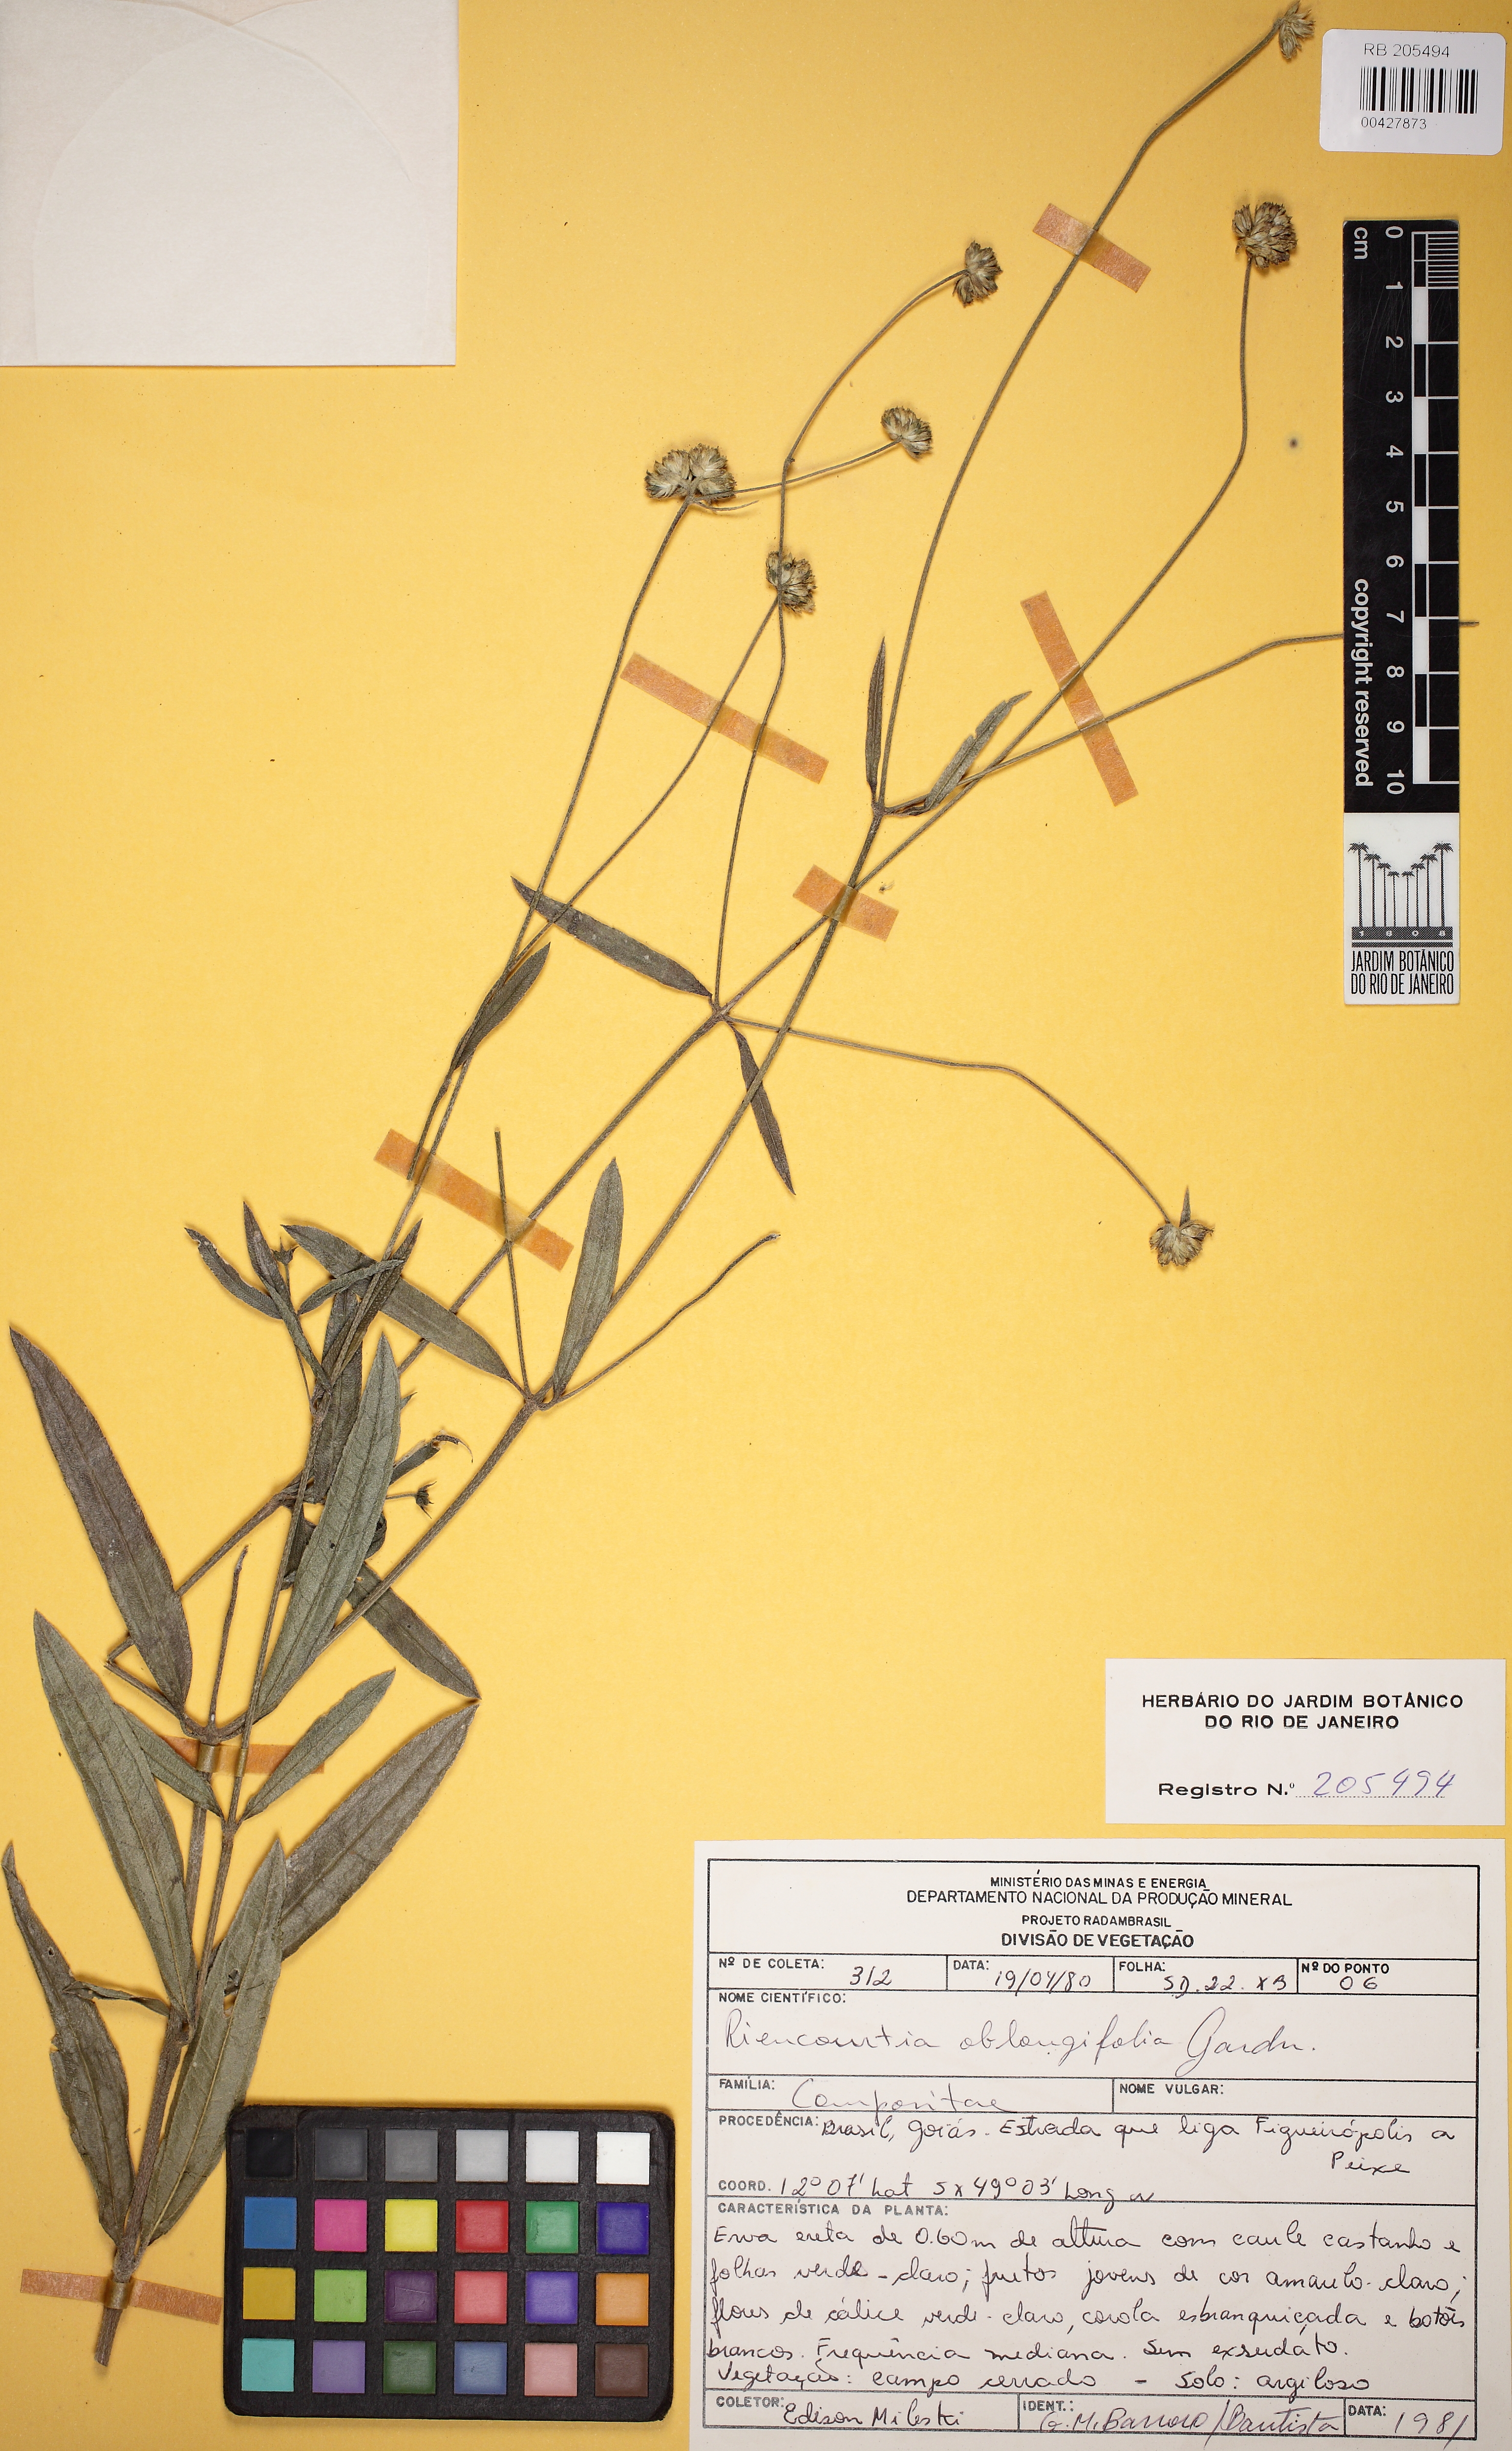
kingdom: Plantae
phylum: Tracheophyta
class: Magnoliopsida
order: Asterales
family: Asteraceae
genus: Riencourtia
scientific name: Riencourtia oblongifolia
